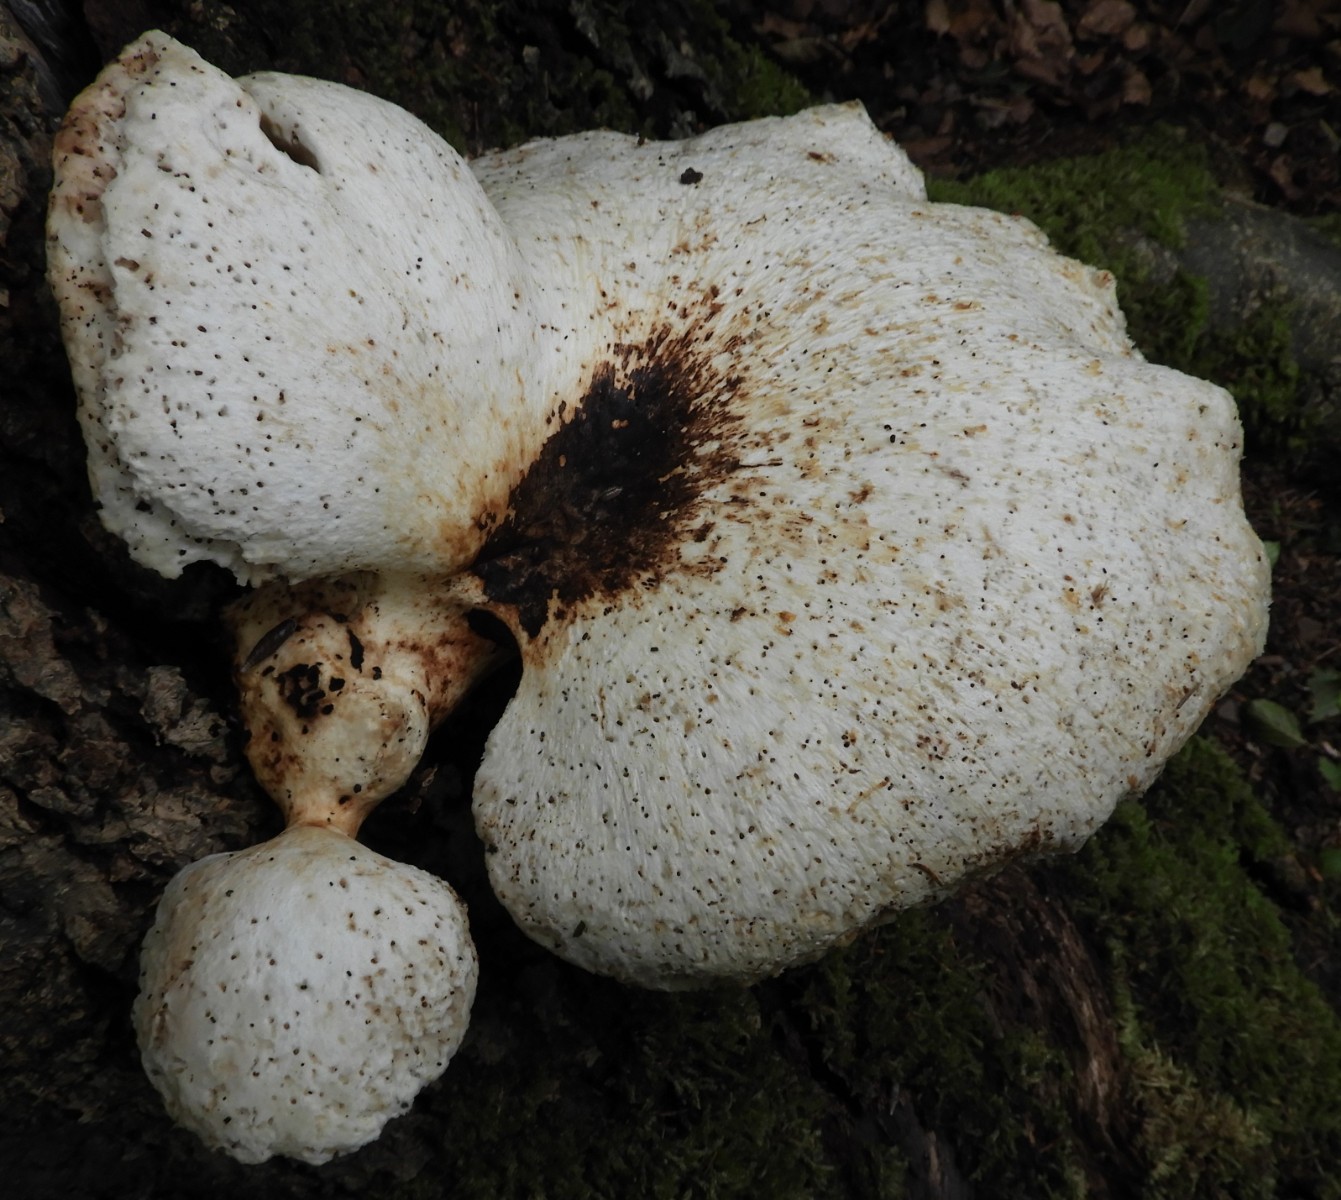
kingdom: Fungi
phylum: Basidiomycota
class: Agaricomycetes
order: Polyporales
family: Polyporaceae
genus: Cerioporus
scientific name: Cerioporus squamosus
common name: skællet stilkporesvamp
